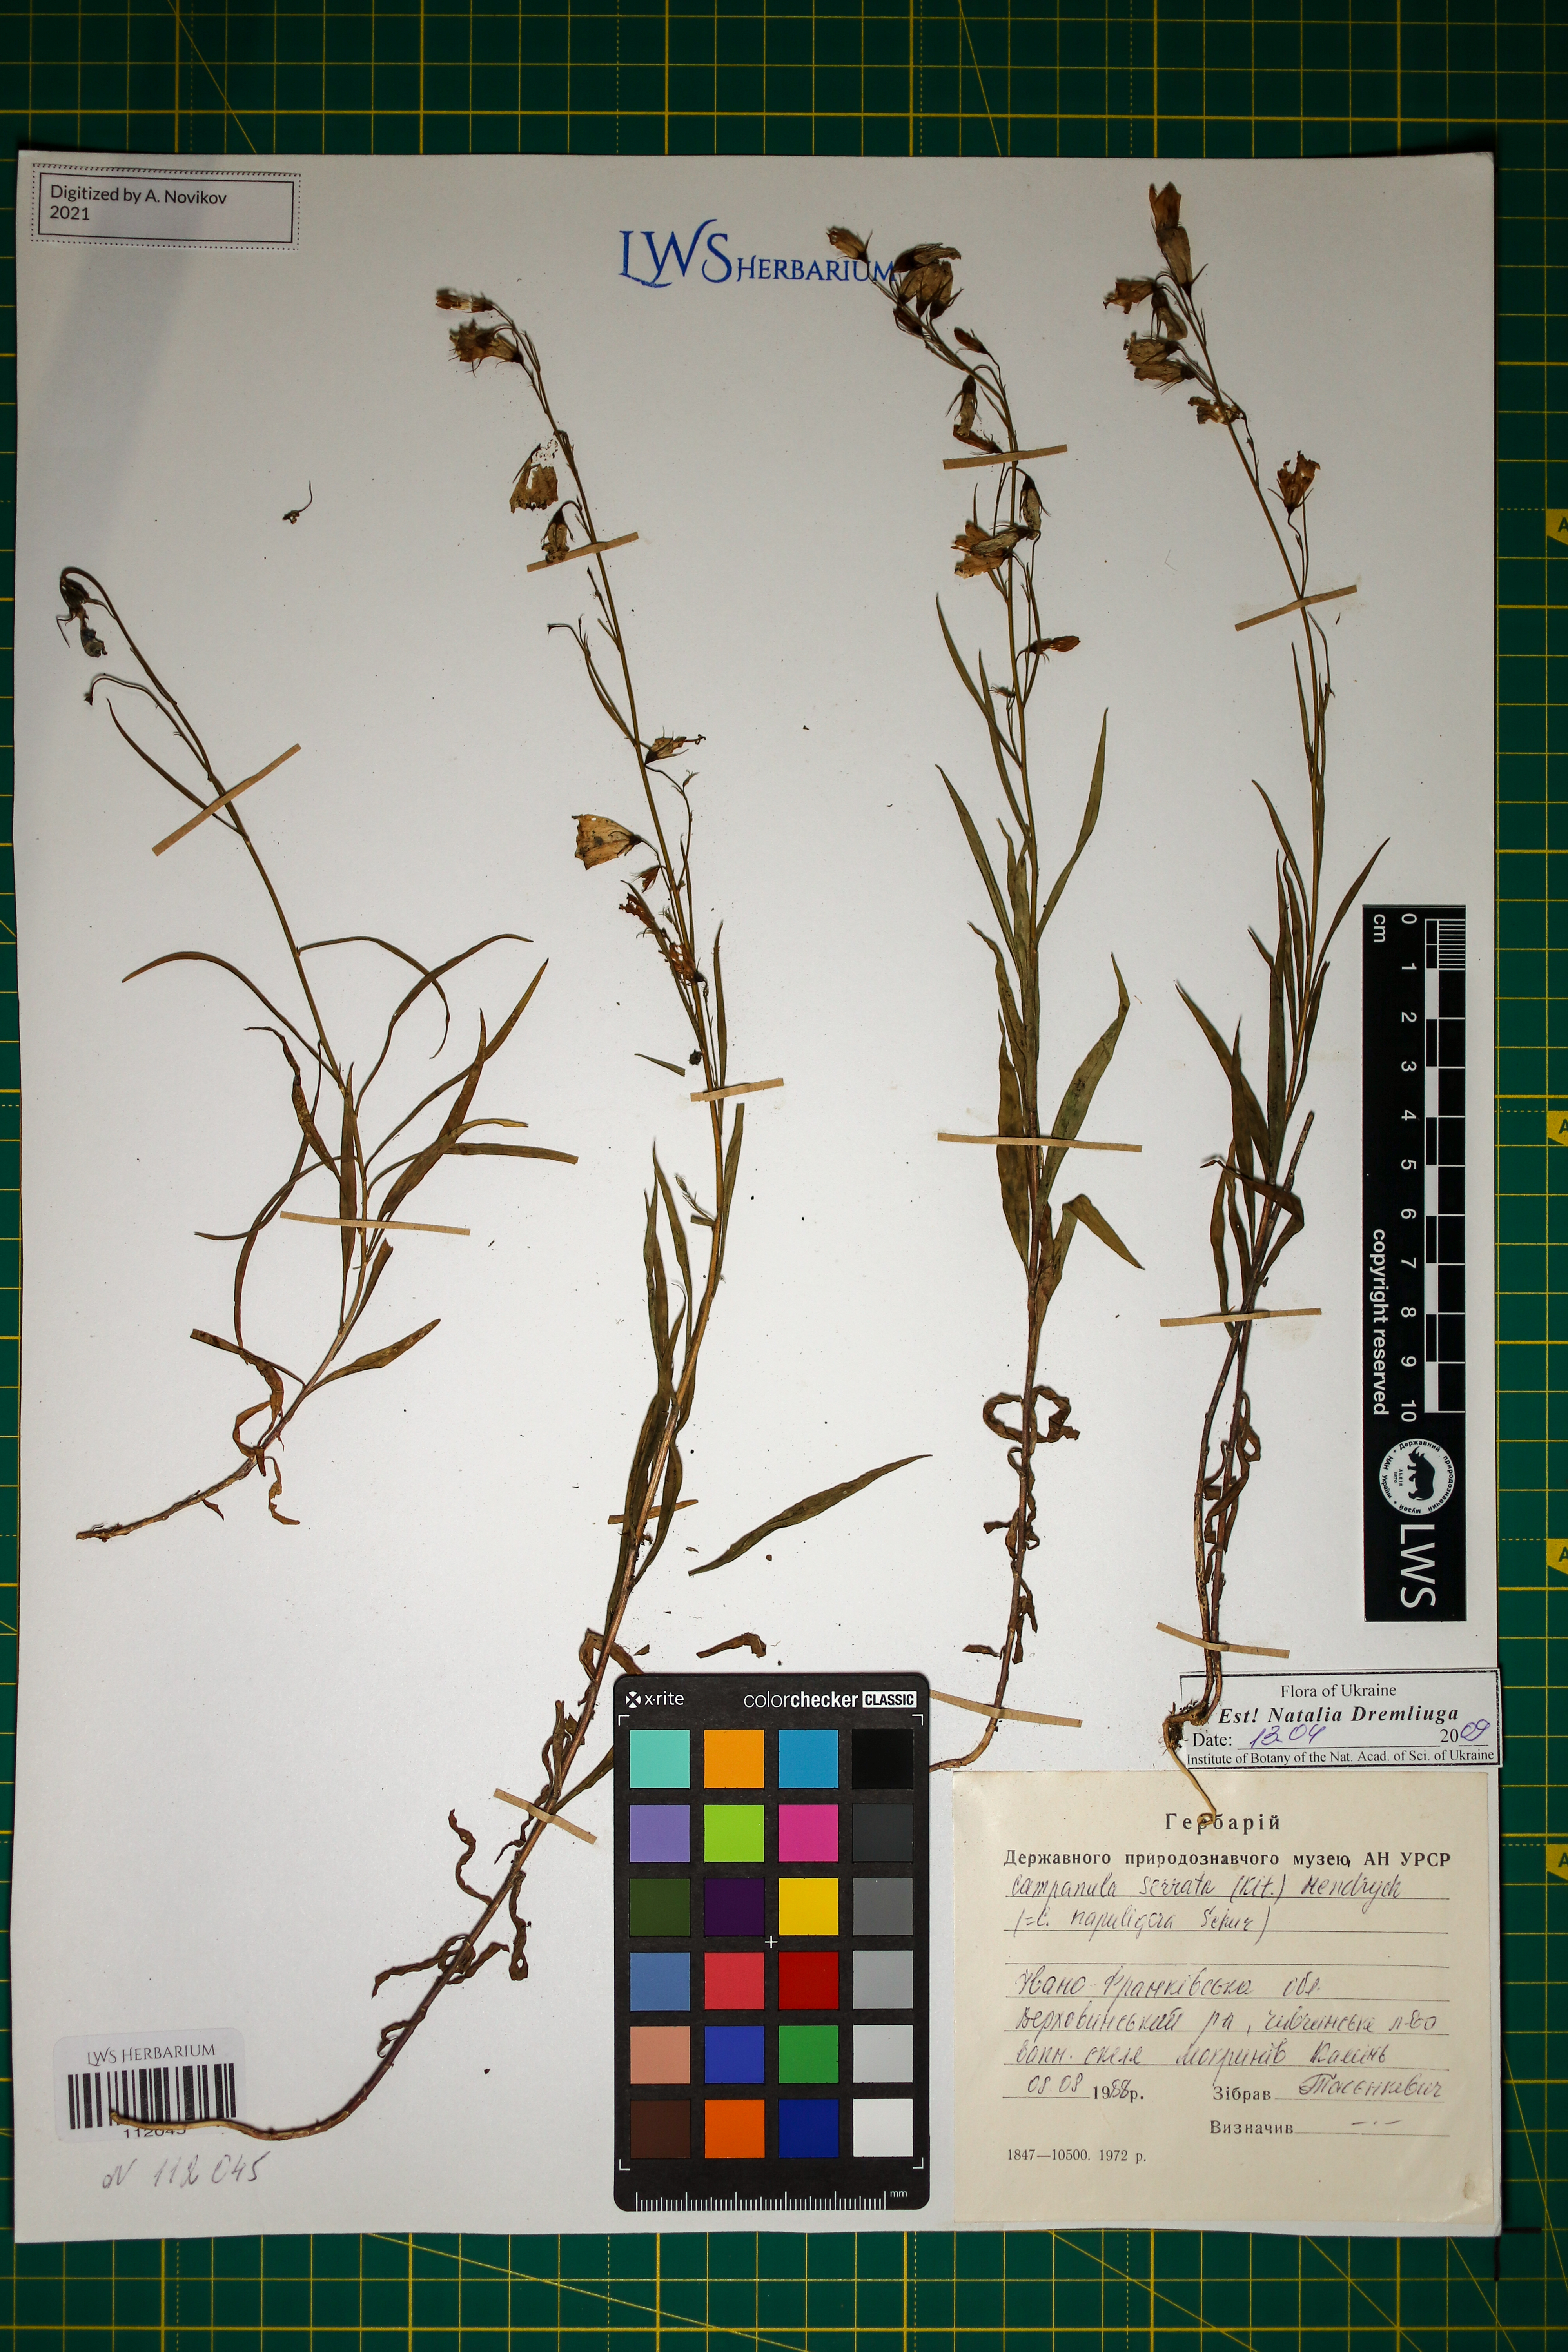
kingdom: Plantae
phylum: Tracheophyta
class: Magnoliopsida
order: Asterales
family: Campanulaceae
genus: Campanula
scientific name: Campanula serrata
